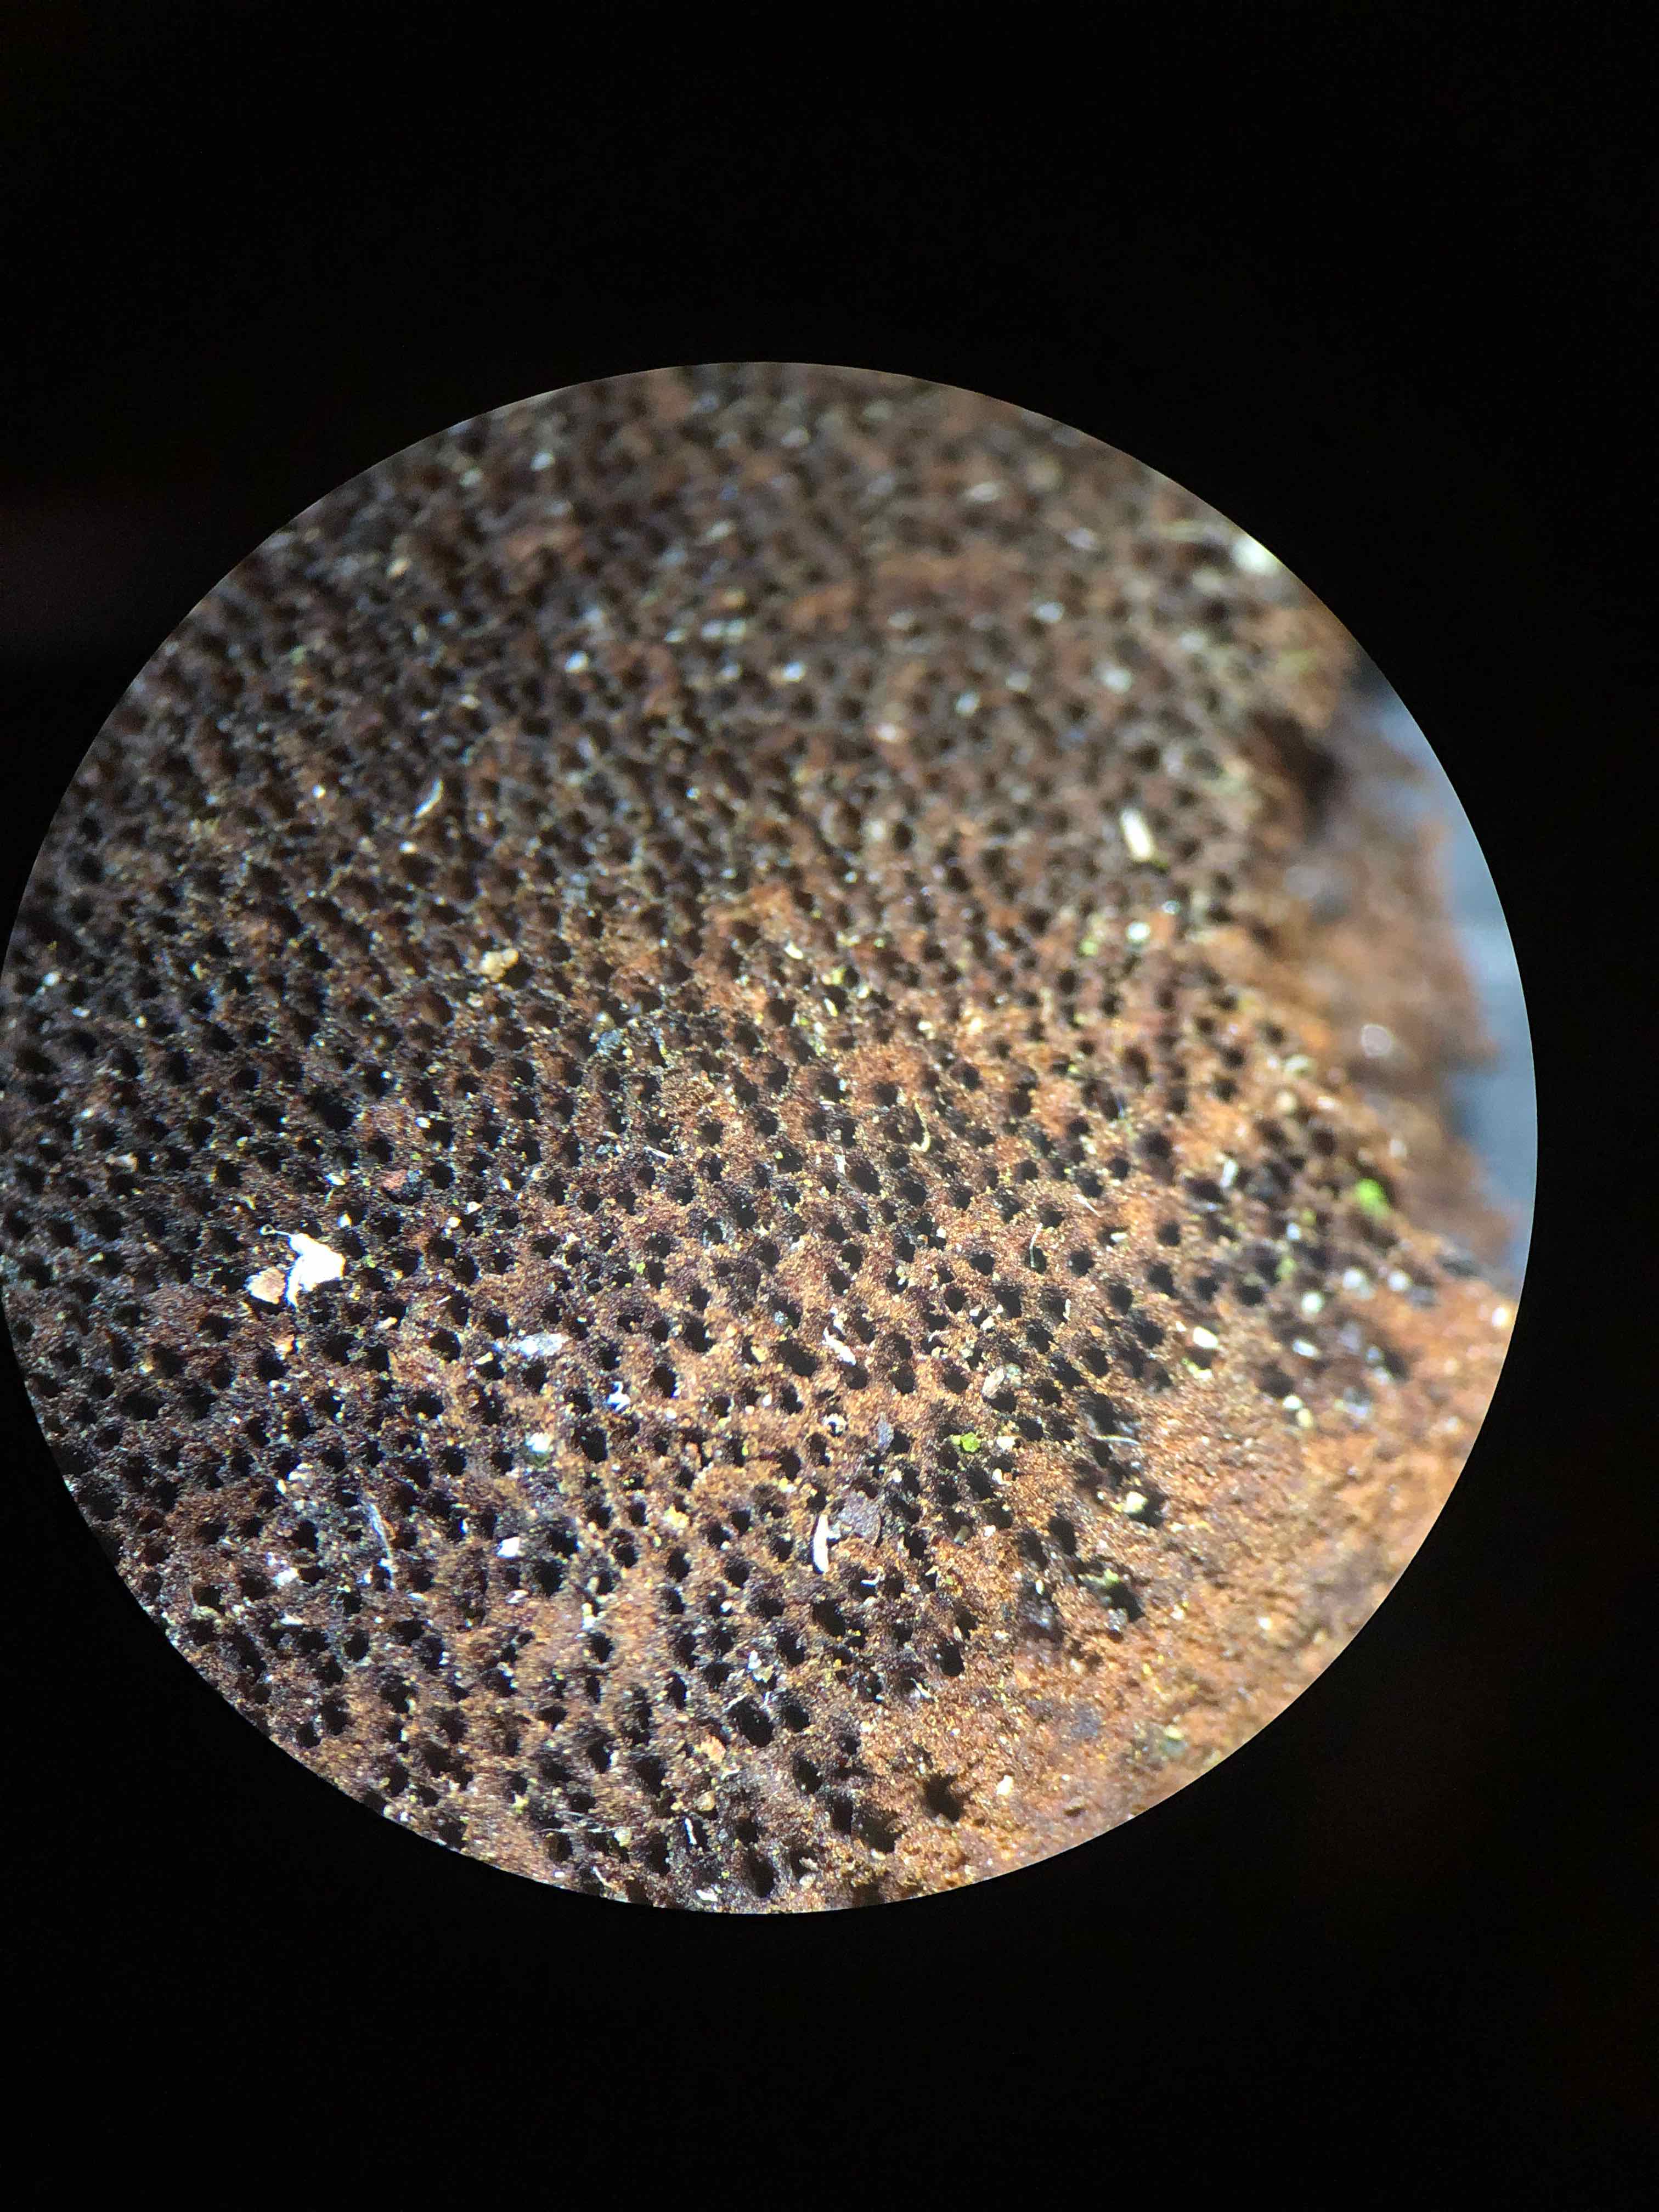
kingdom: Fungi
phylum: Basidiomycota
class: Agaricomycetes
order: Hymenochaetales
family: Hymenochaetaceae
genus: Phellinus
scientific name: Phellinus populicola
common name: poppel-ildporesvamp
